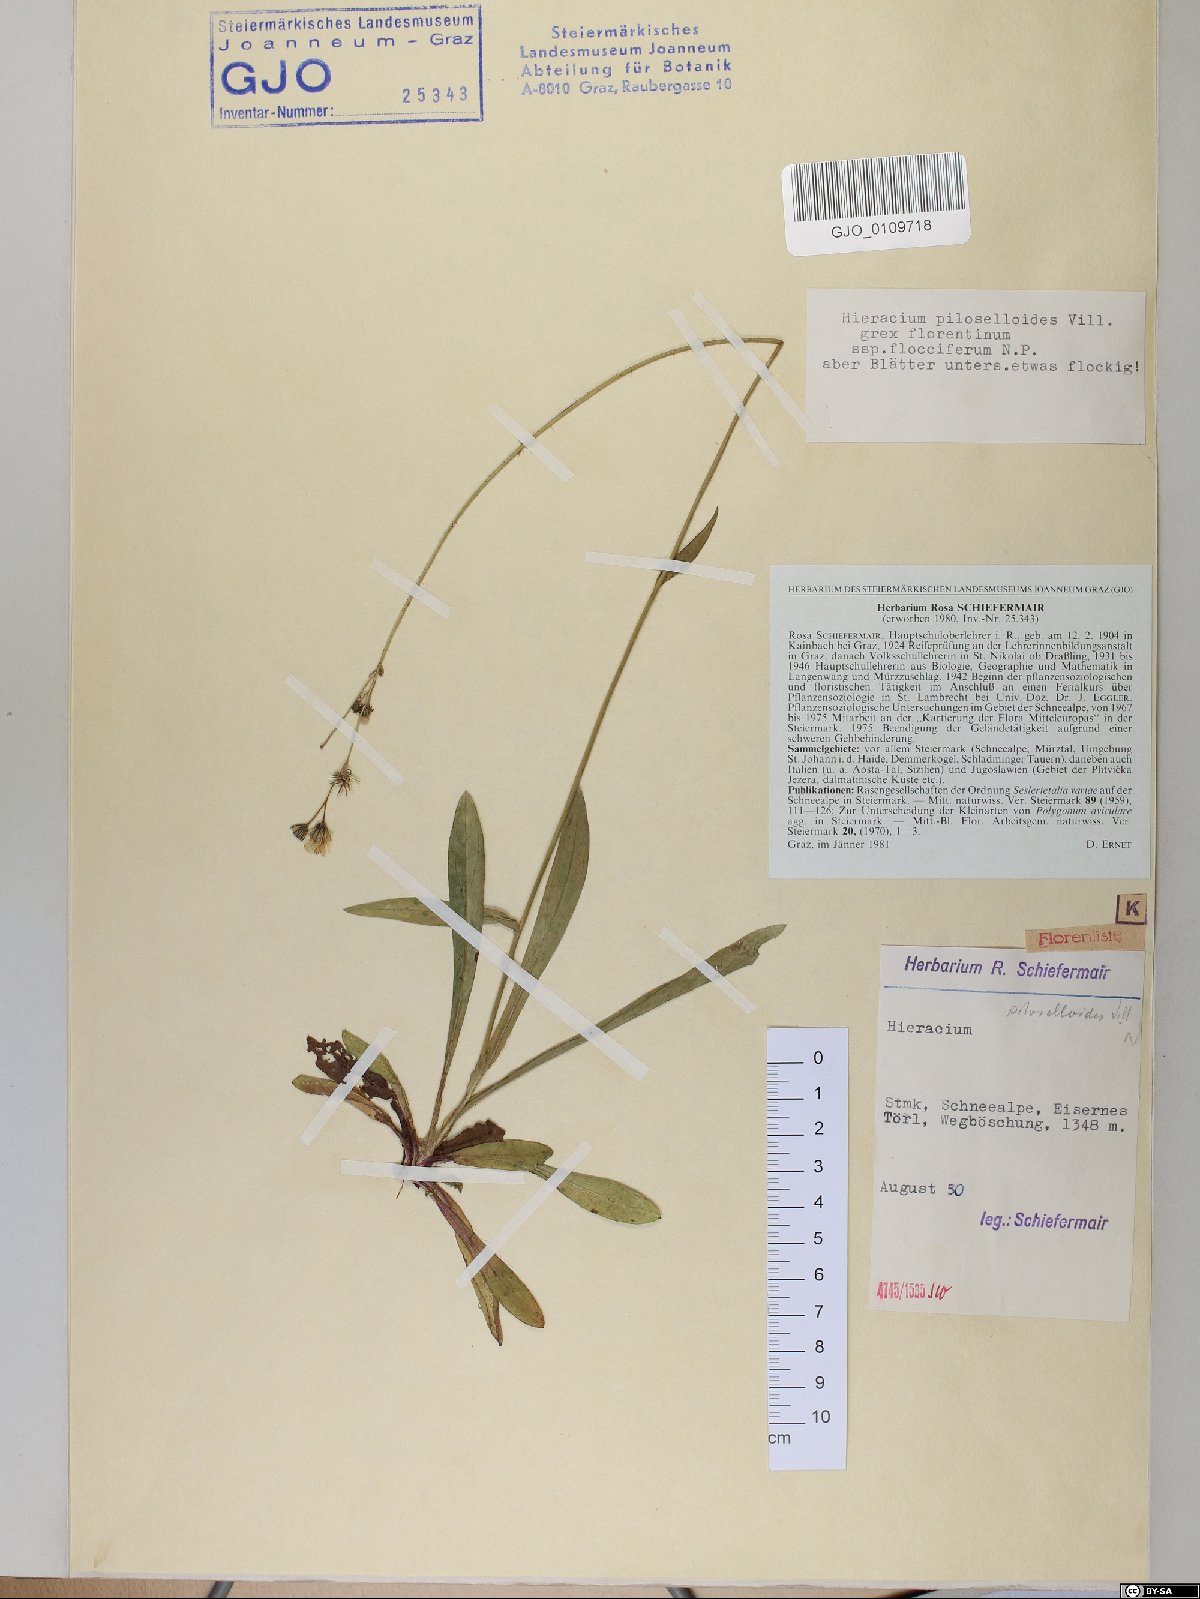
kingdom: Plantae
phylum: Tracheophyta
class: Magnoliopsida
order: Asterales
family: Asteraceae
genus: Pilosella
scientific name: Pilosella piloselloides
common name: Glaucous king-devil
